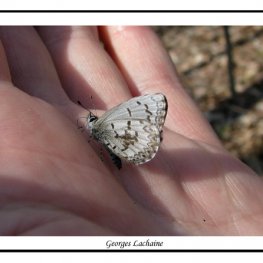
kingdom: Animalia
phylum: Arthropoda
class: Insecta
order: Lepidoptera
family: Lycaenidae
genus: Celastrina
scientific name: Celastrina lucia
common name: Northern Spring Azure
